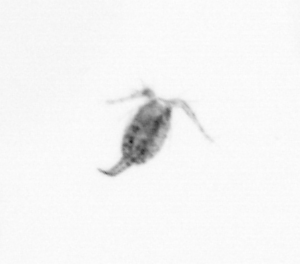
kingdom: Animalia
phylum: Arthropoda
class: Copepoda
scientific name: Copepoda
